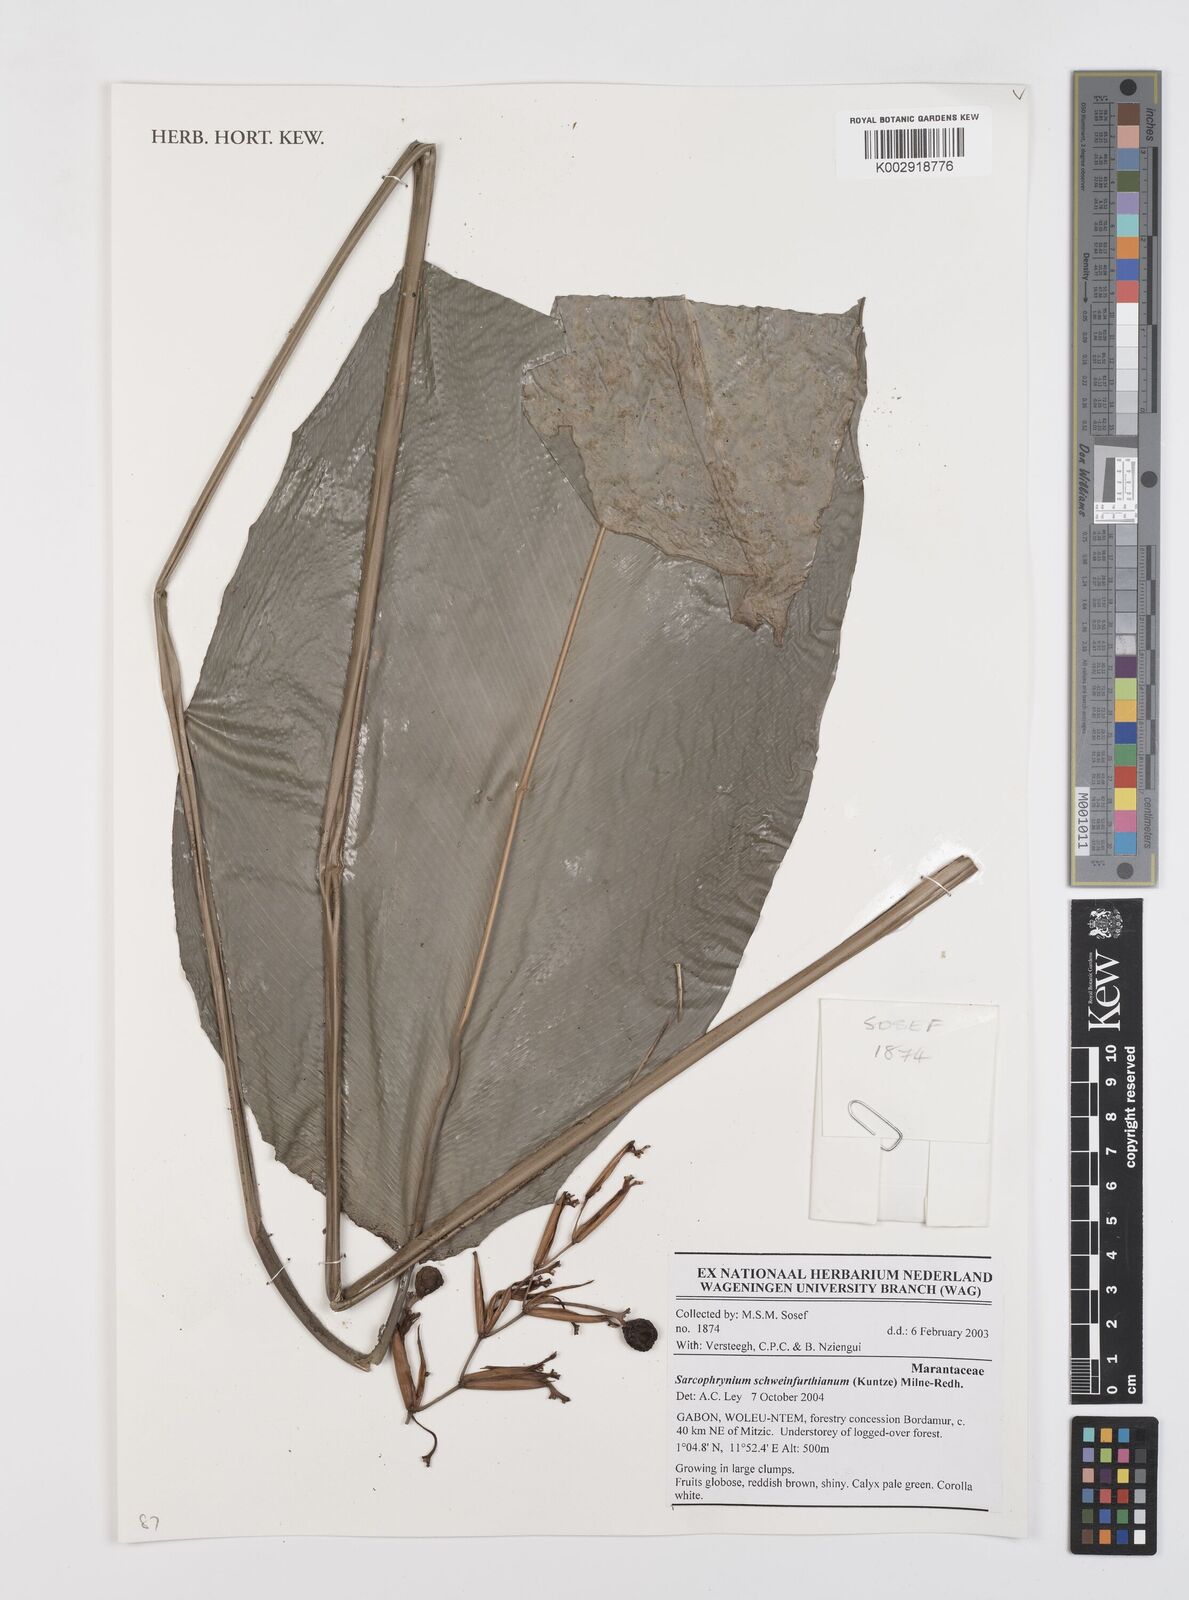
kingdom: Plantae
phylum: Tracheophyta
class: Liliopsida
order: Zingiberales
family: Marantaceae
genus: Sarcophrynium
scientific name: Sarcophrynium schweinfurthianum
